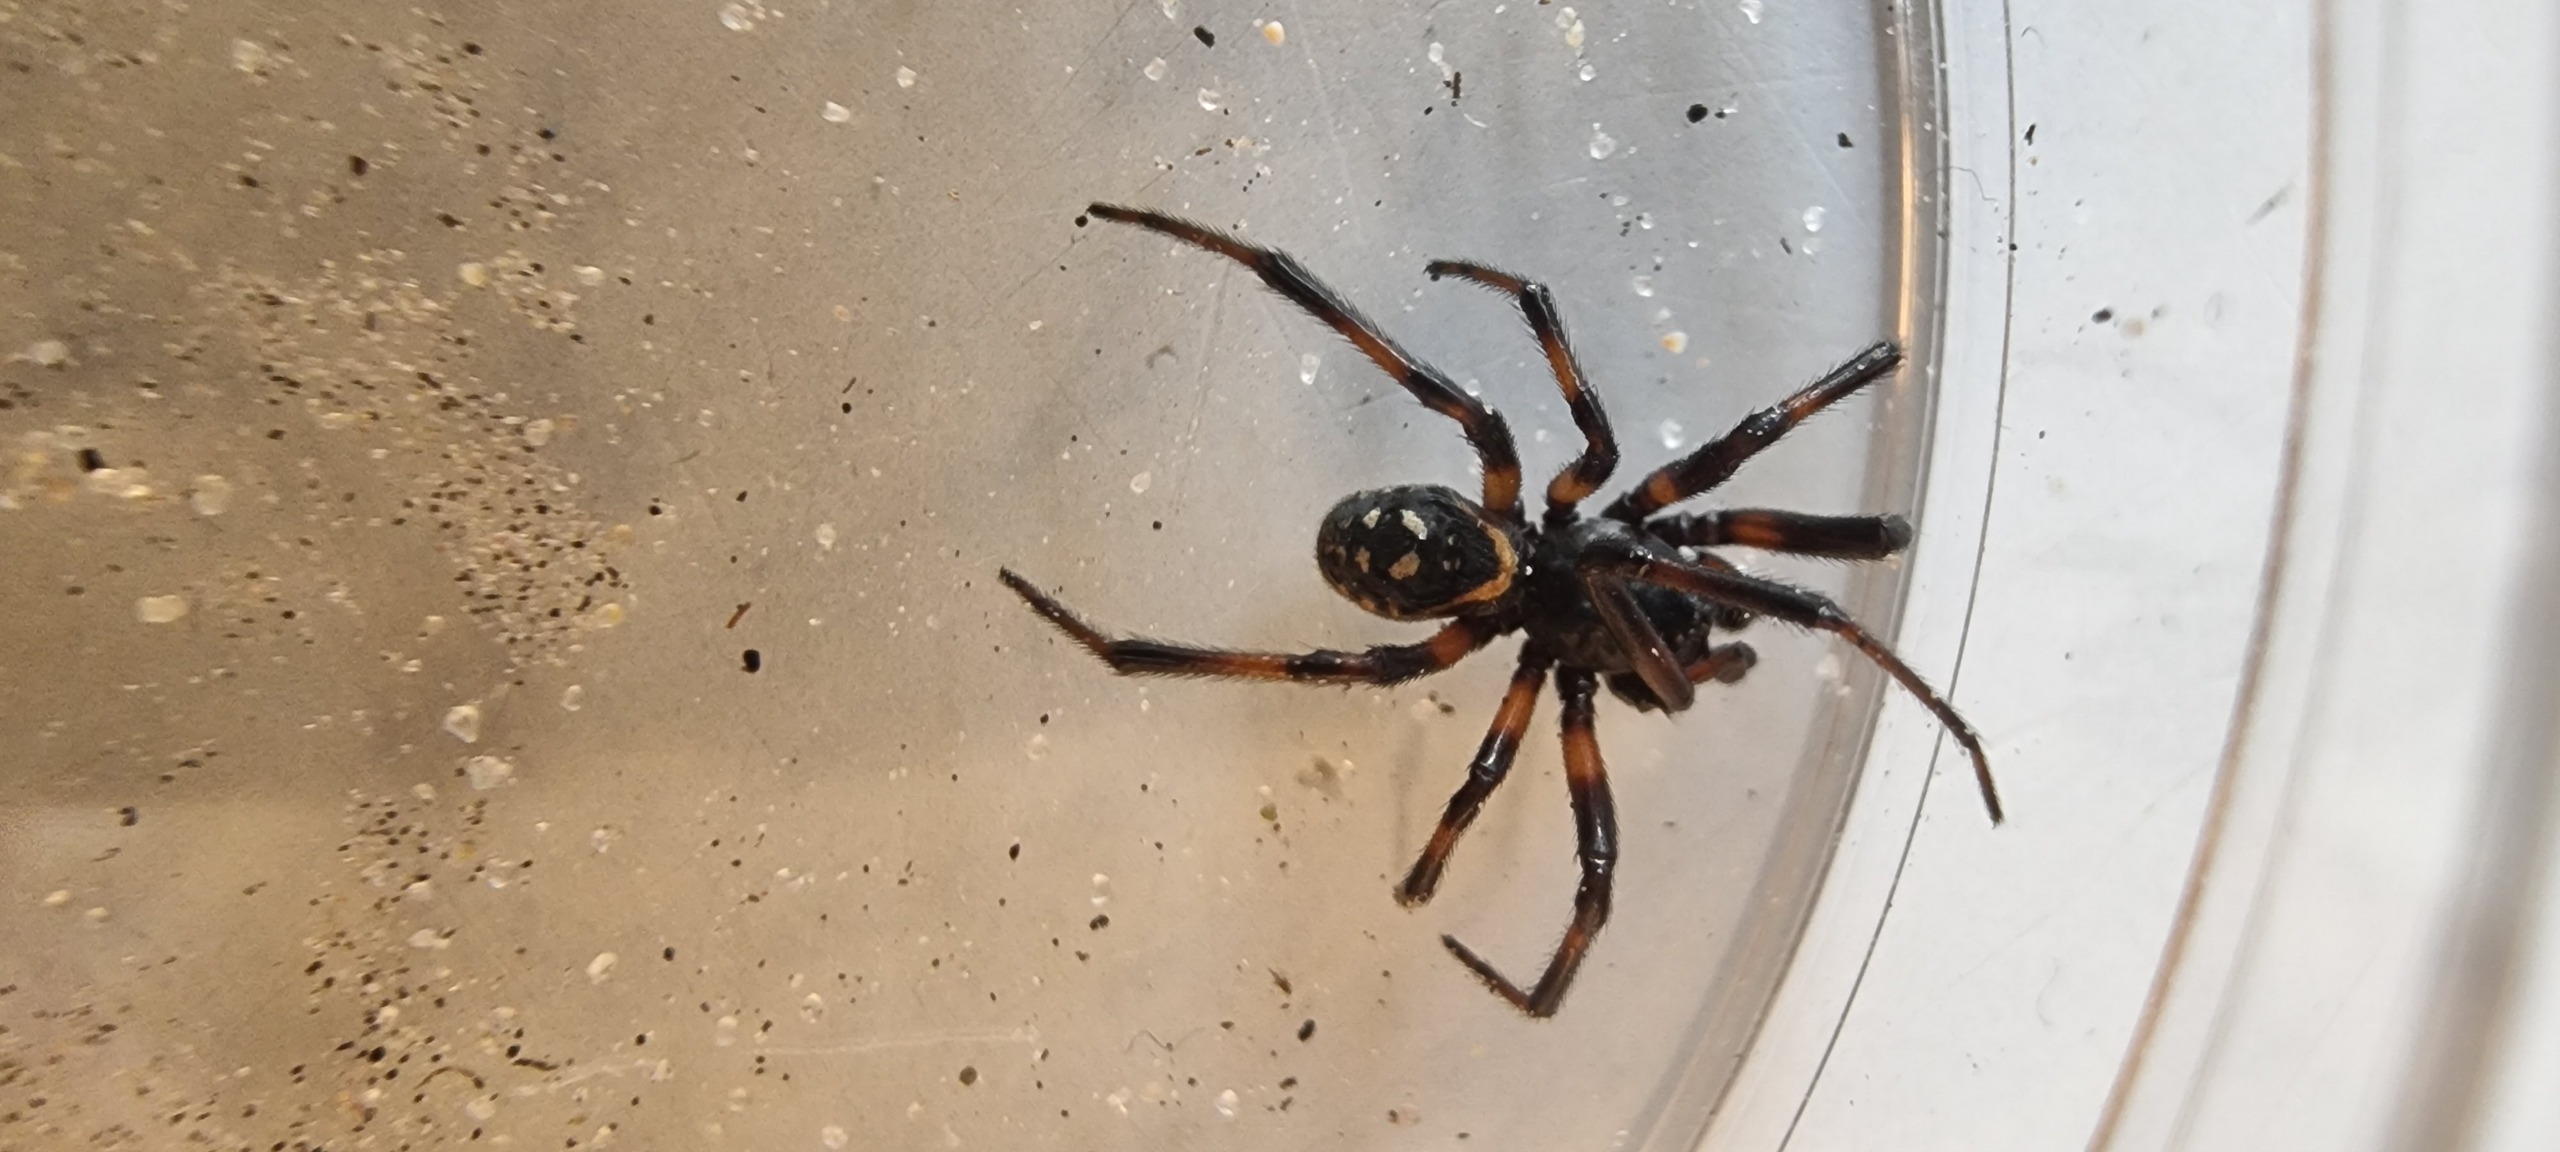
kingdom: Animalia
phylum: Arthropoda
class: Arachnida
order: Araneae
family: Theridiidae
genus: Steatoda
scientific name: Steatoda albomaculata
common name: Hvidplettet voksedderkop
